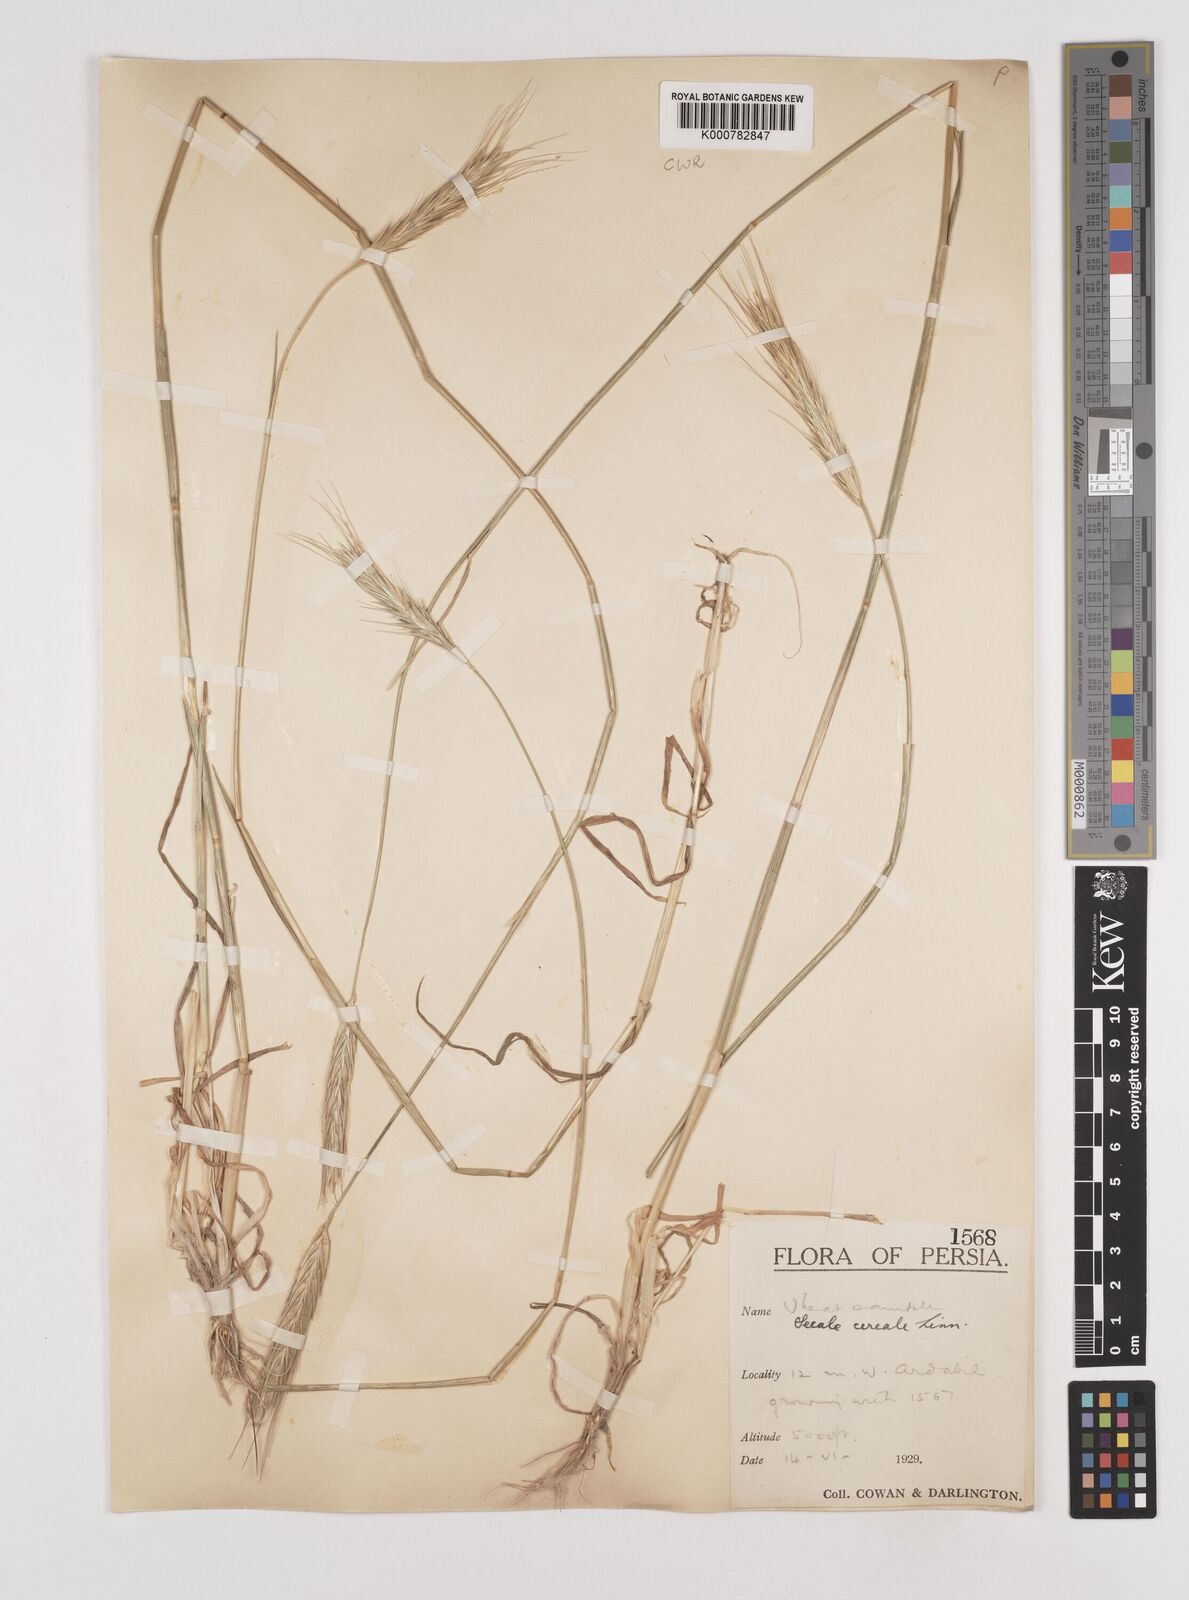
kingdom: Plantae
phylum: Tracheophyta
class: Liliopsida
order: Poales
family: Poaceae
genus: Secale
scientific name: Secale cereale
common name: Rye
